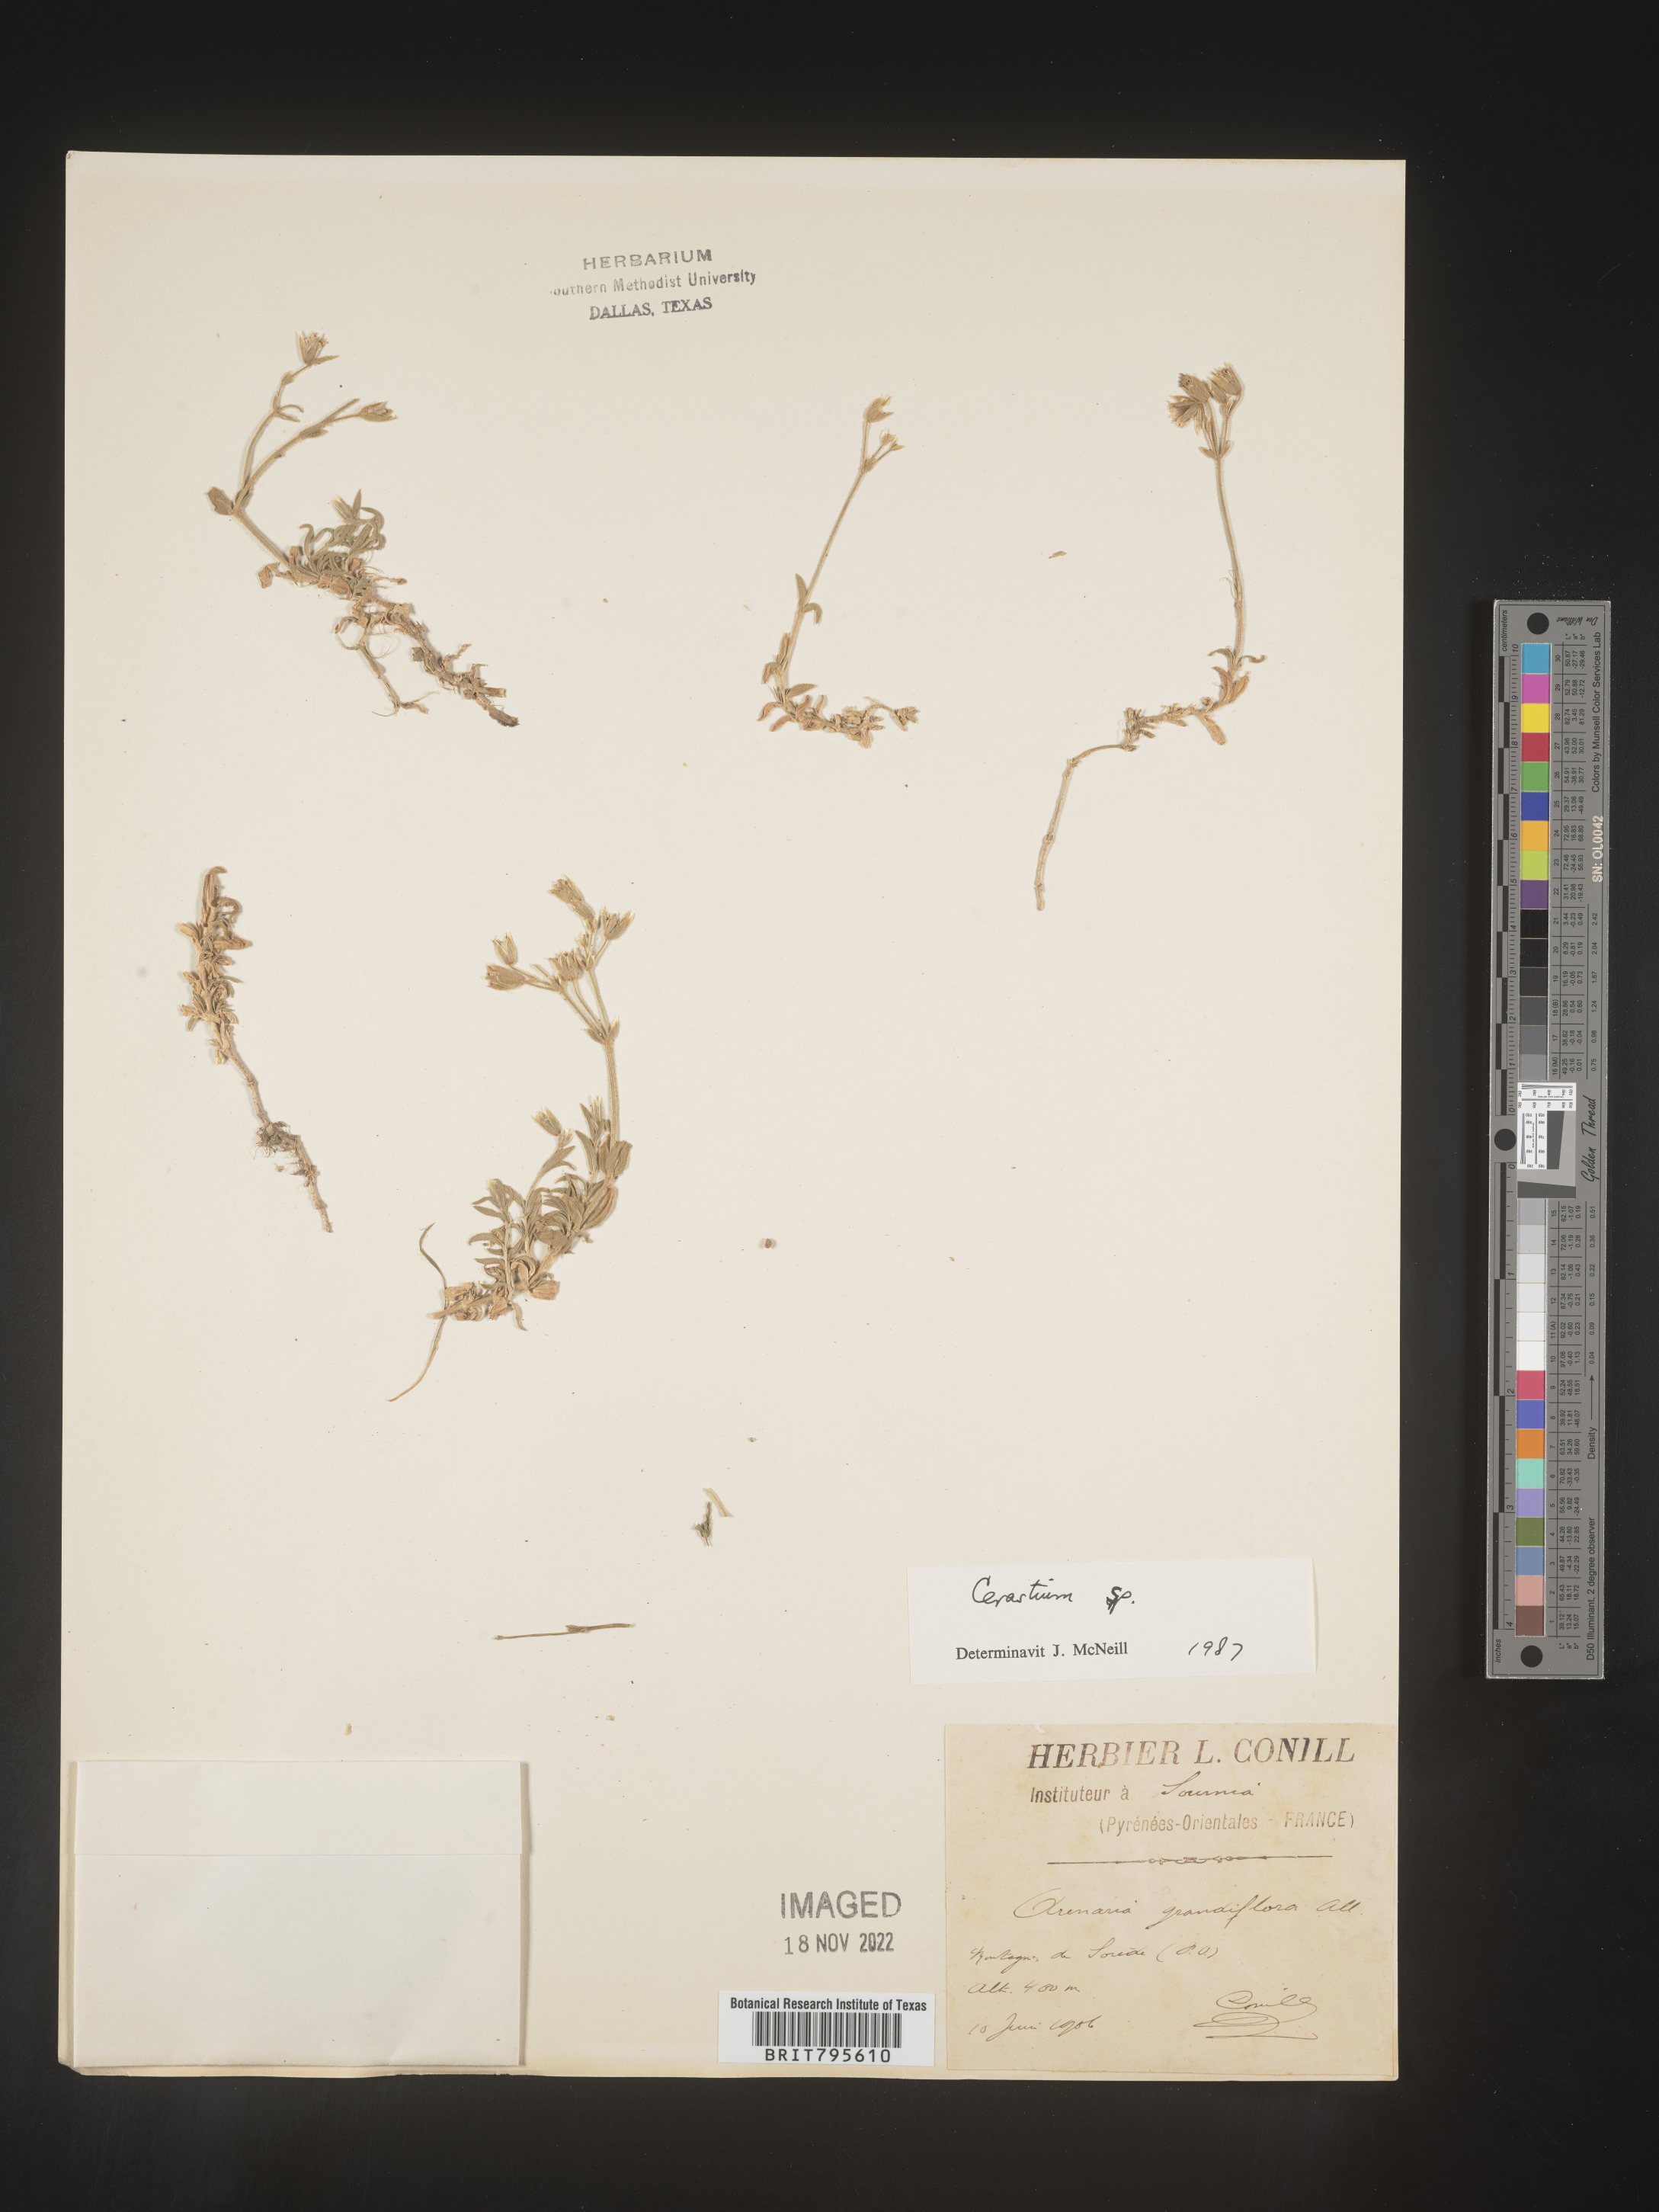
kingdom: Plantae
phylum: Tracheophyta
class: Magnoliopsida
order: Caryophyllales
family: Caryophyllaceae
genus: Cerastium
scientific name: Cerastium
